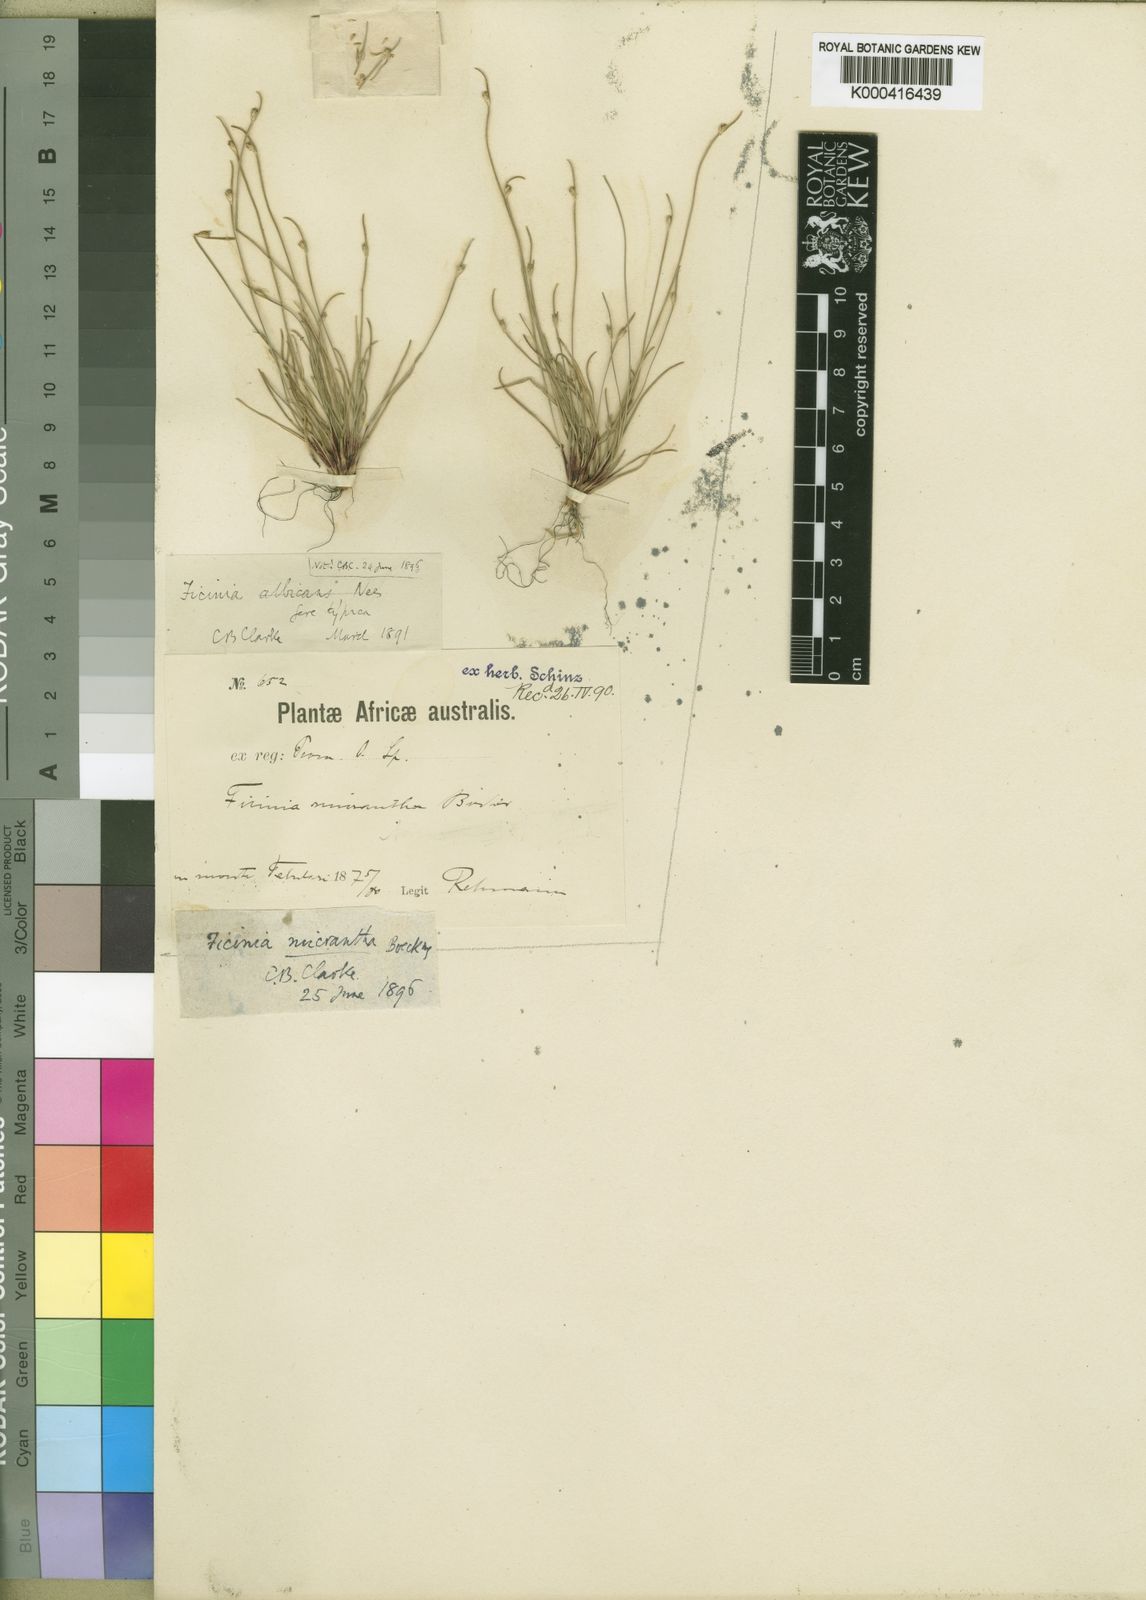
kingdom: Plantae
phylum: Tracheophyta
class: Liliopsida
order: Poales
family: Cyperaceae
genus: Ficinia
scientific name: Ficinia
